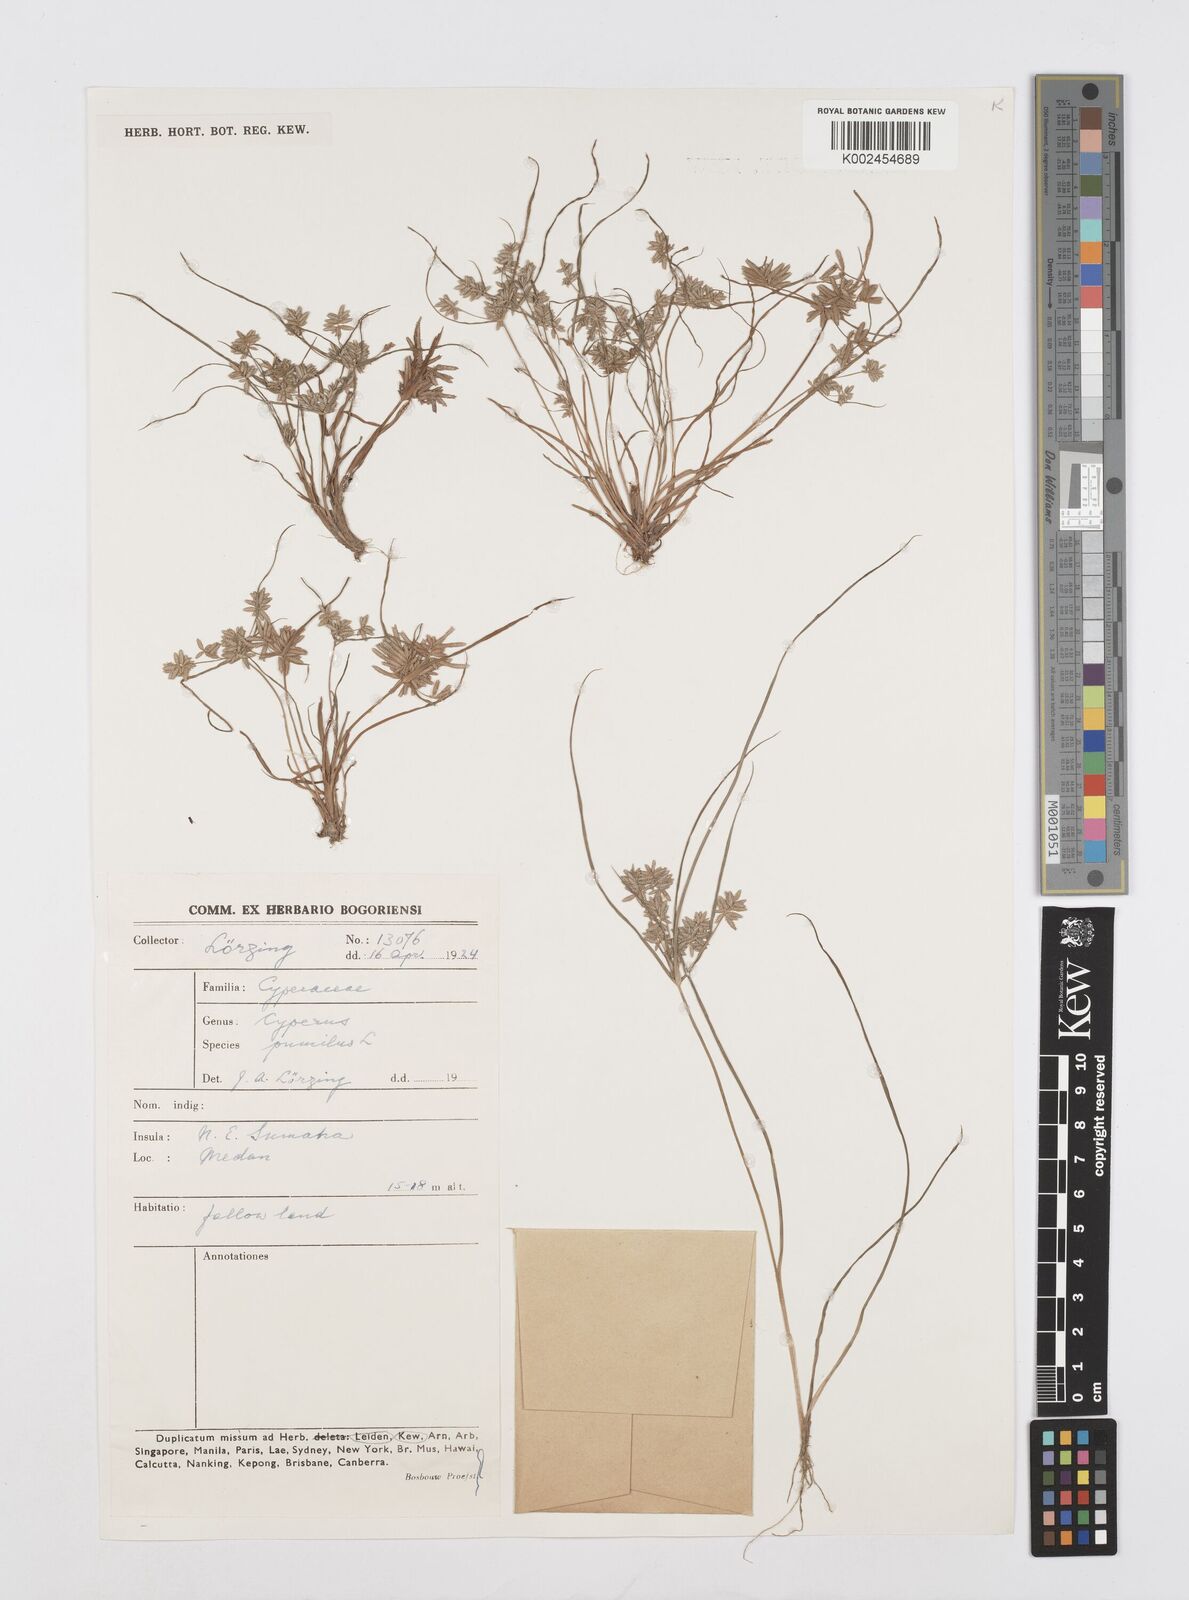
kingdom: Plantae
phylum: Tracheophyta
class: Liliopsida
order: Poales
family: Cyperaceae
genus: Cyperus
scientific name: Cyperus pumilus
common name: Low flatsedge
